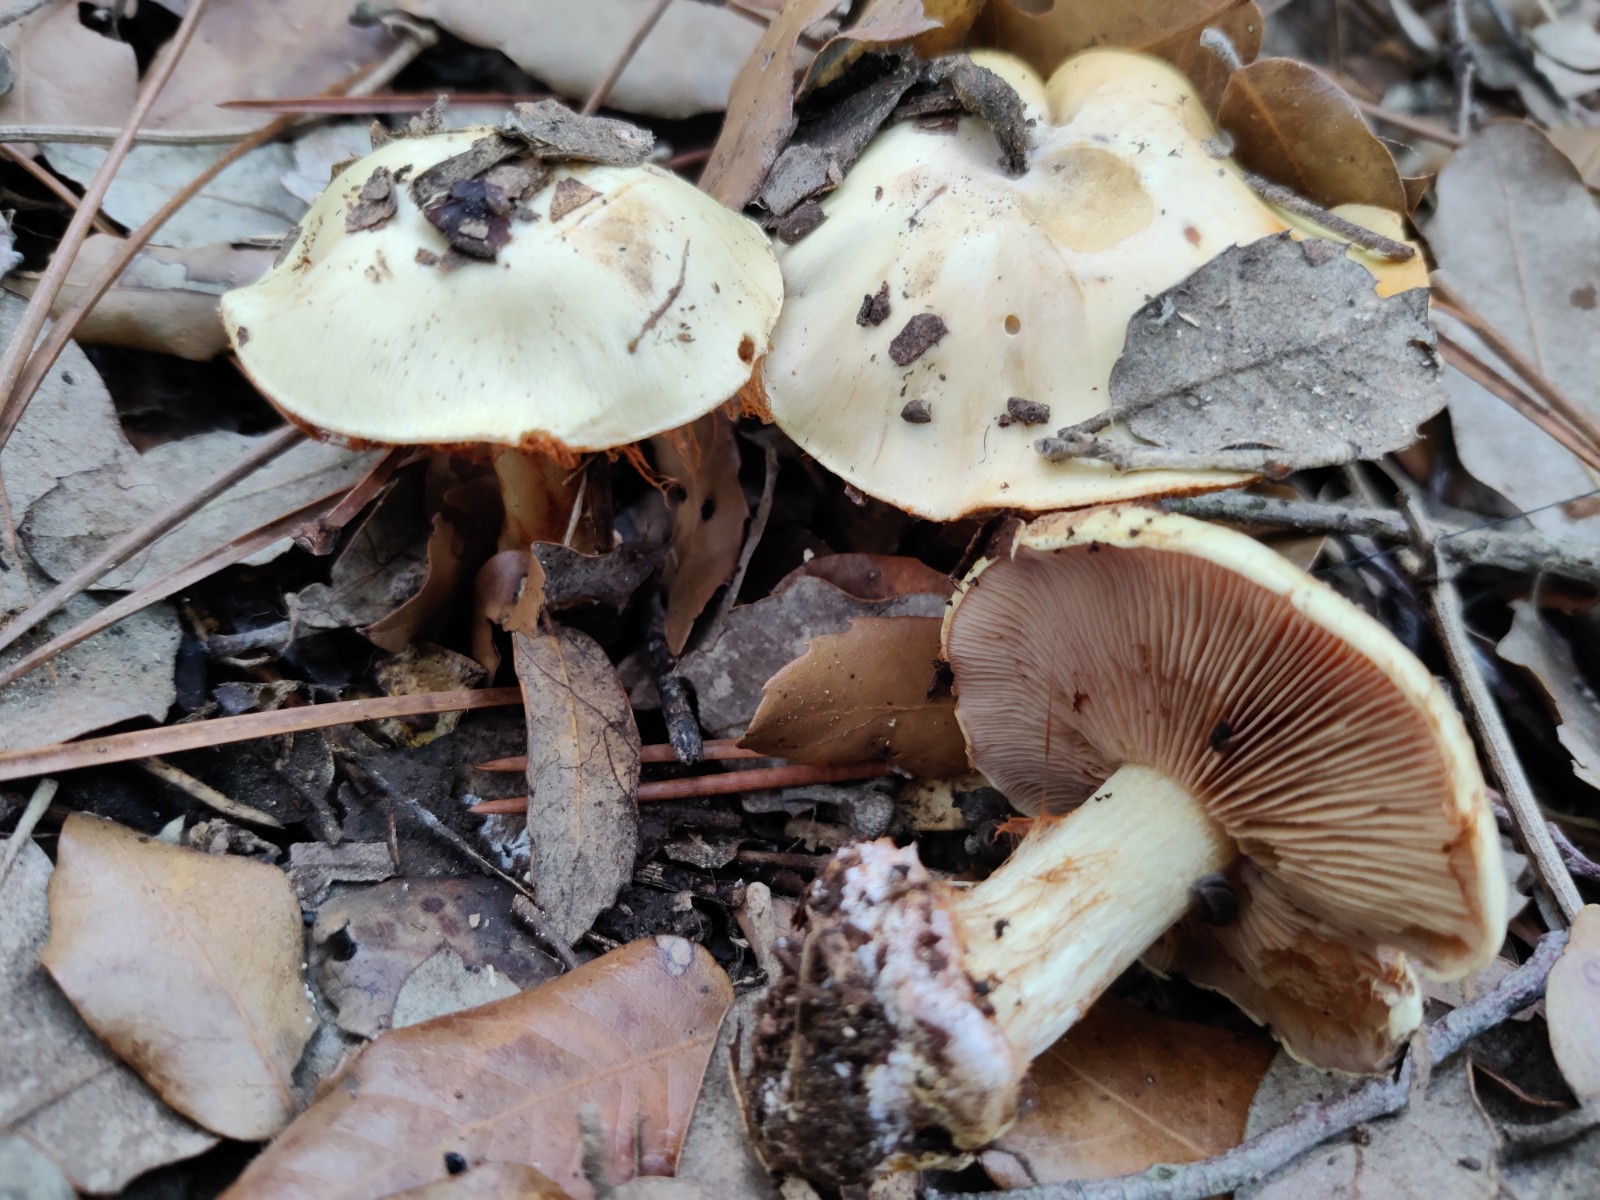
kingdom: Fungi
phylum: Basidiomycota
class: Agaricomycetes
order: Agaricales
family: Cortinariaceae
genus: Calonarius
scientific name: Calonarius lavandulochlorus
